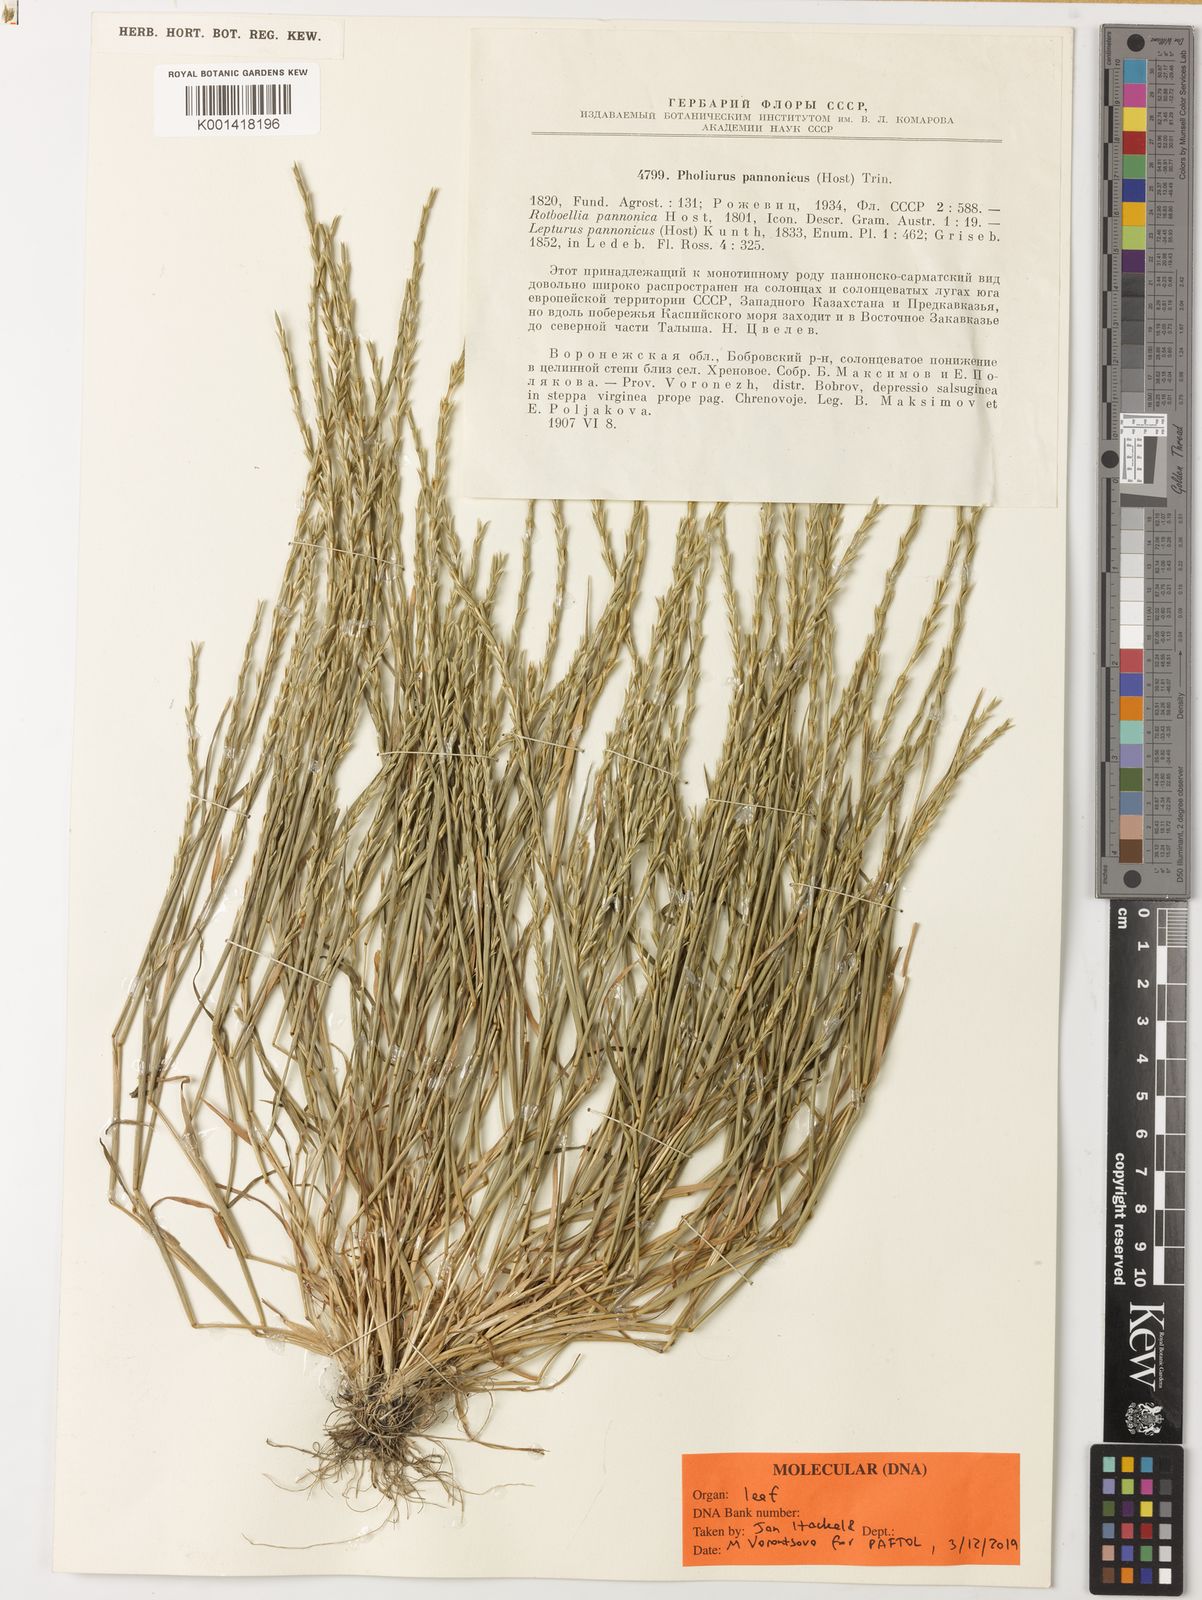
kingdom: Plantae
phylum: Tracheophyta
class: Liliopsida
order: Poales
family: Poaceae
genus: Pholiurus
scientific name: Pholiurus pannonicus
